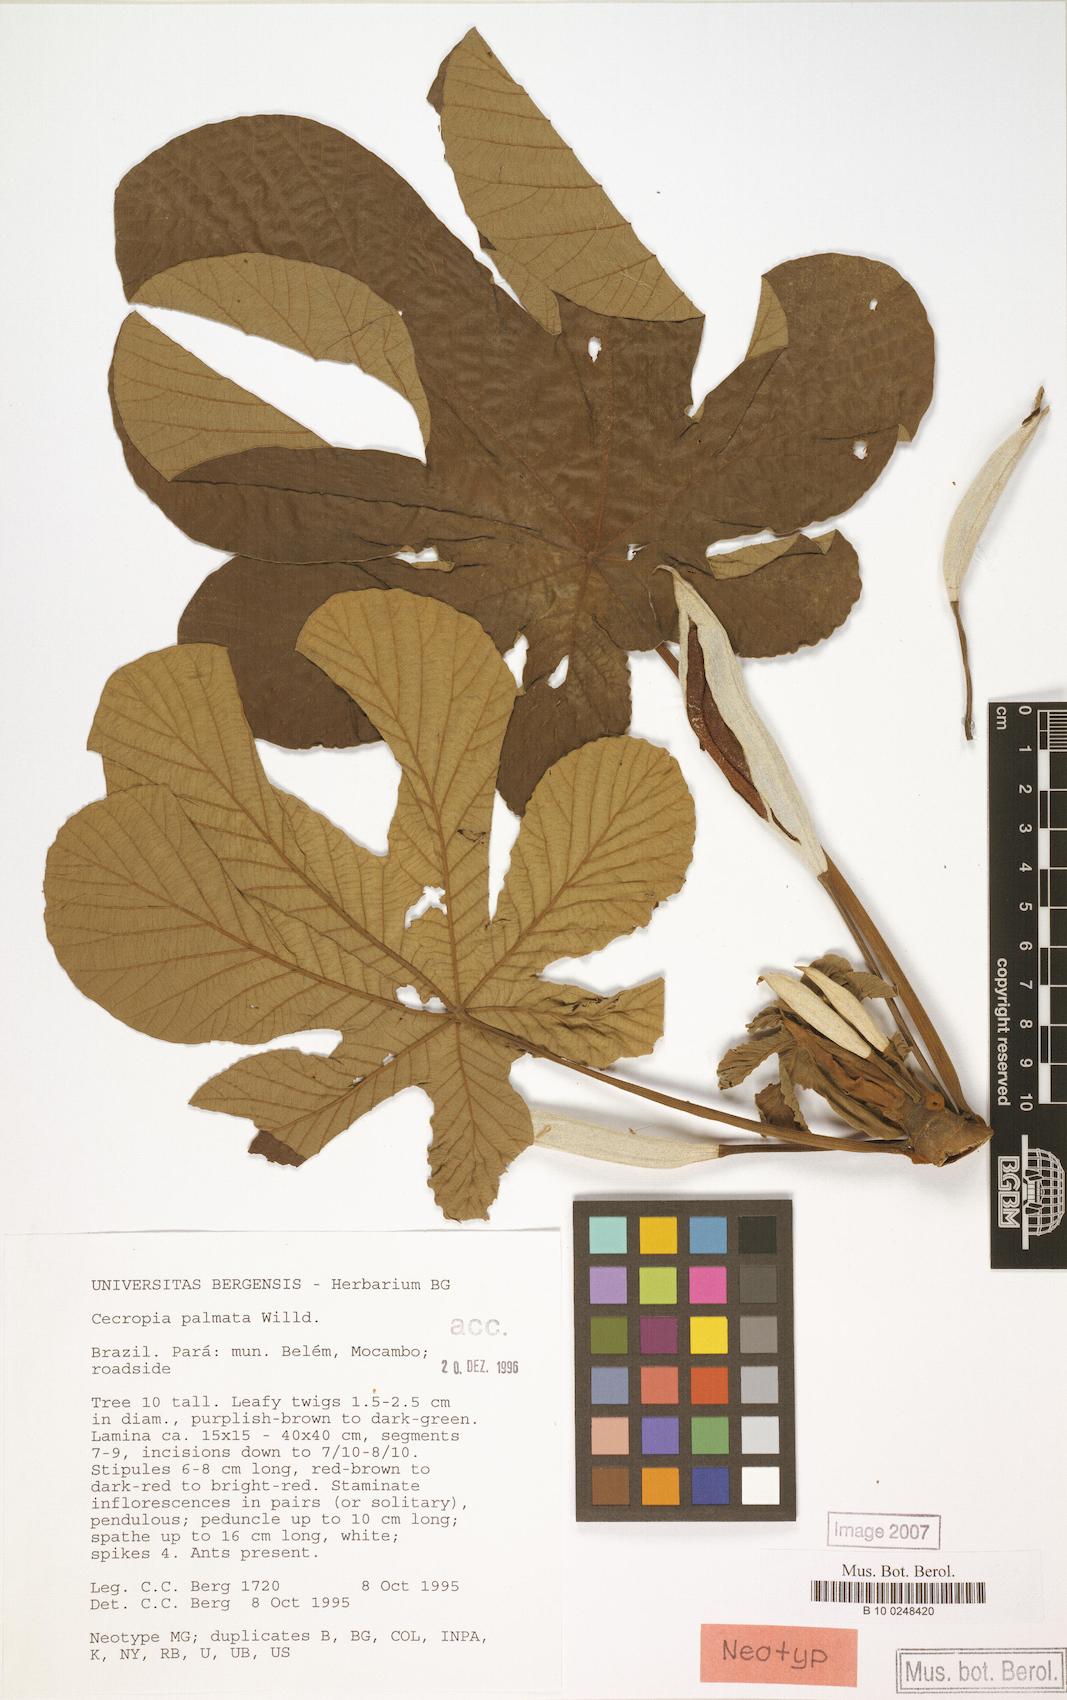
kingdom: Plantae
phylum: Tracheophyta
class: Magnoliopsida
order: Rosales
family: Urticaceae
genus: Cecropia
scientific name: Cecropia palmata
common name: Trumpet tree
